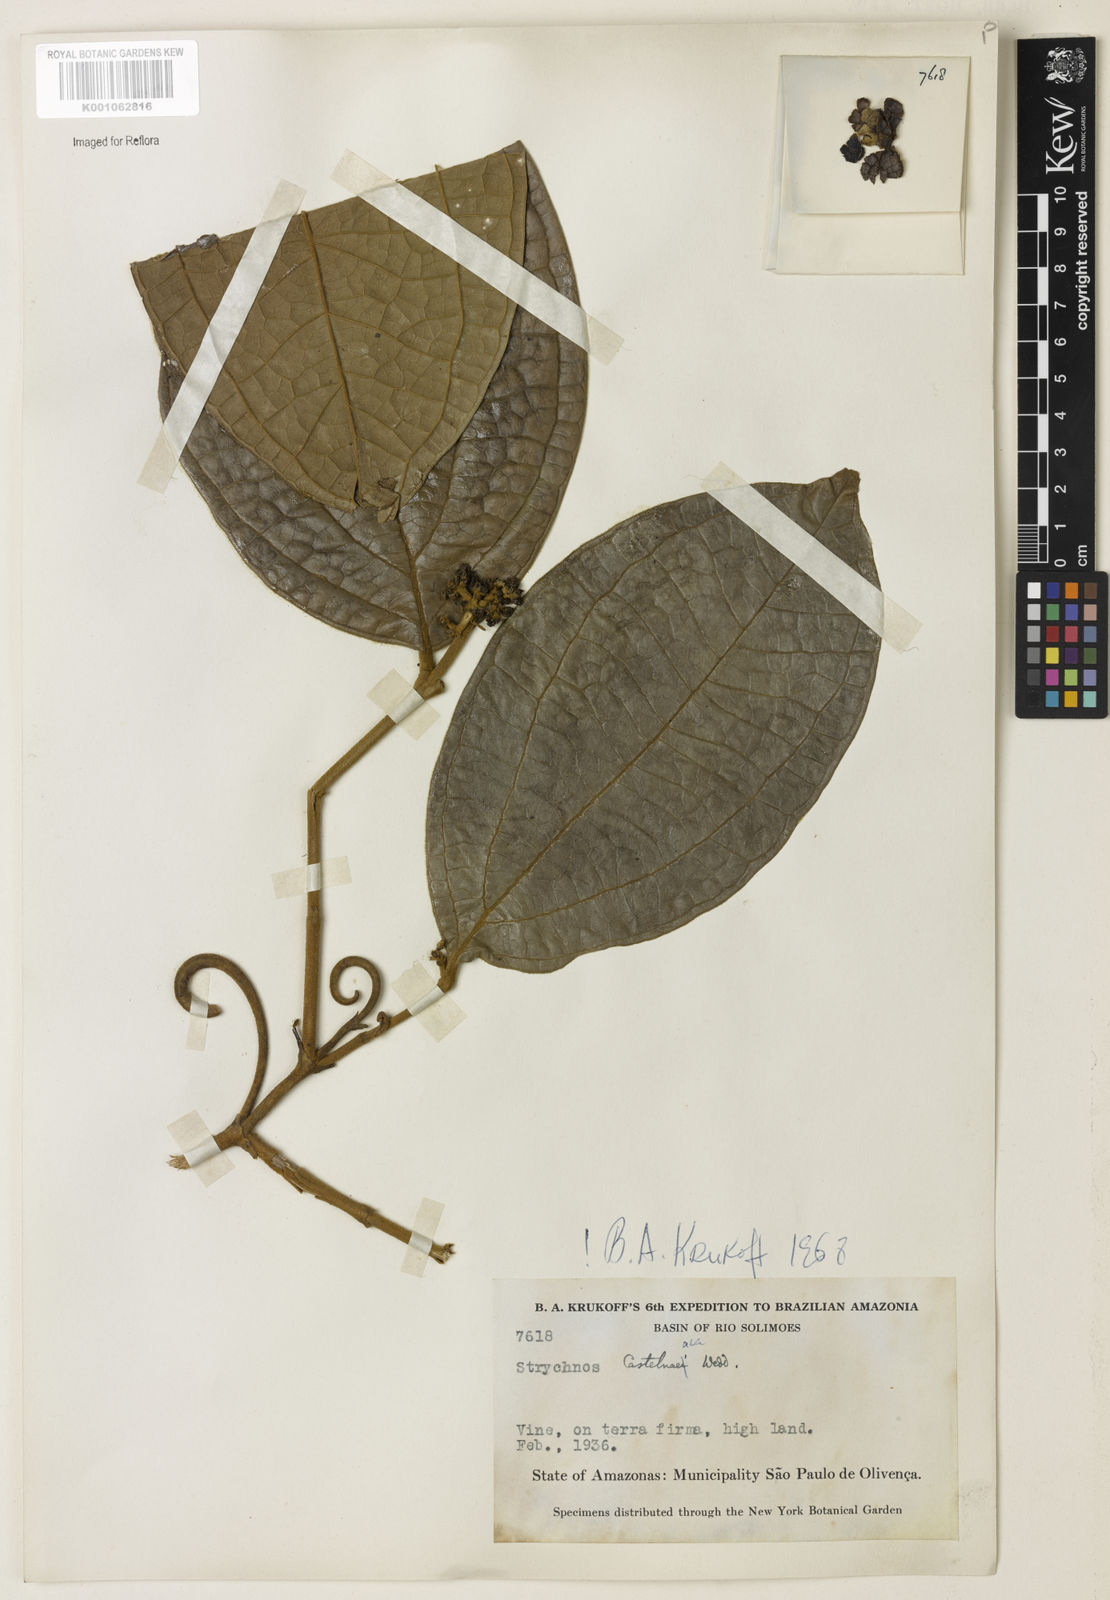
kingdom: Plantae
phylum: Tracheophyta
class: Magnoliopsida
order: Gentianales
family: Loganiaceae
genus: Strychnos
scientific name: Strychnos
